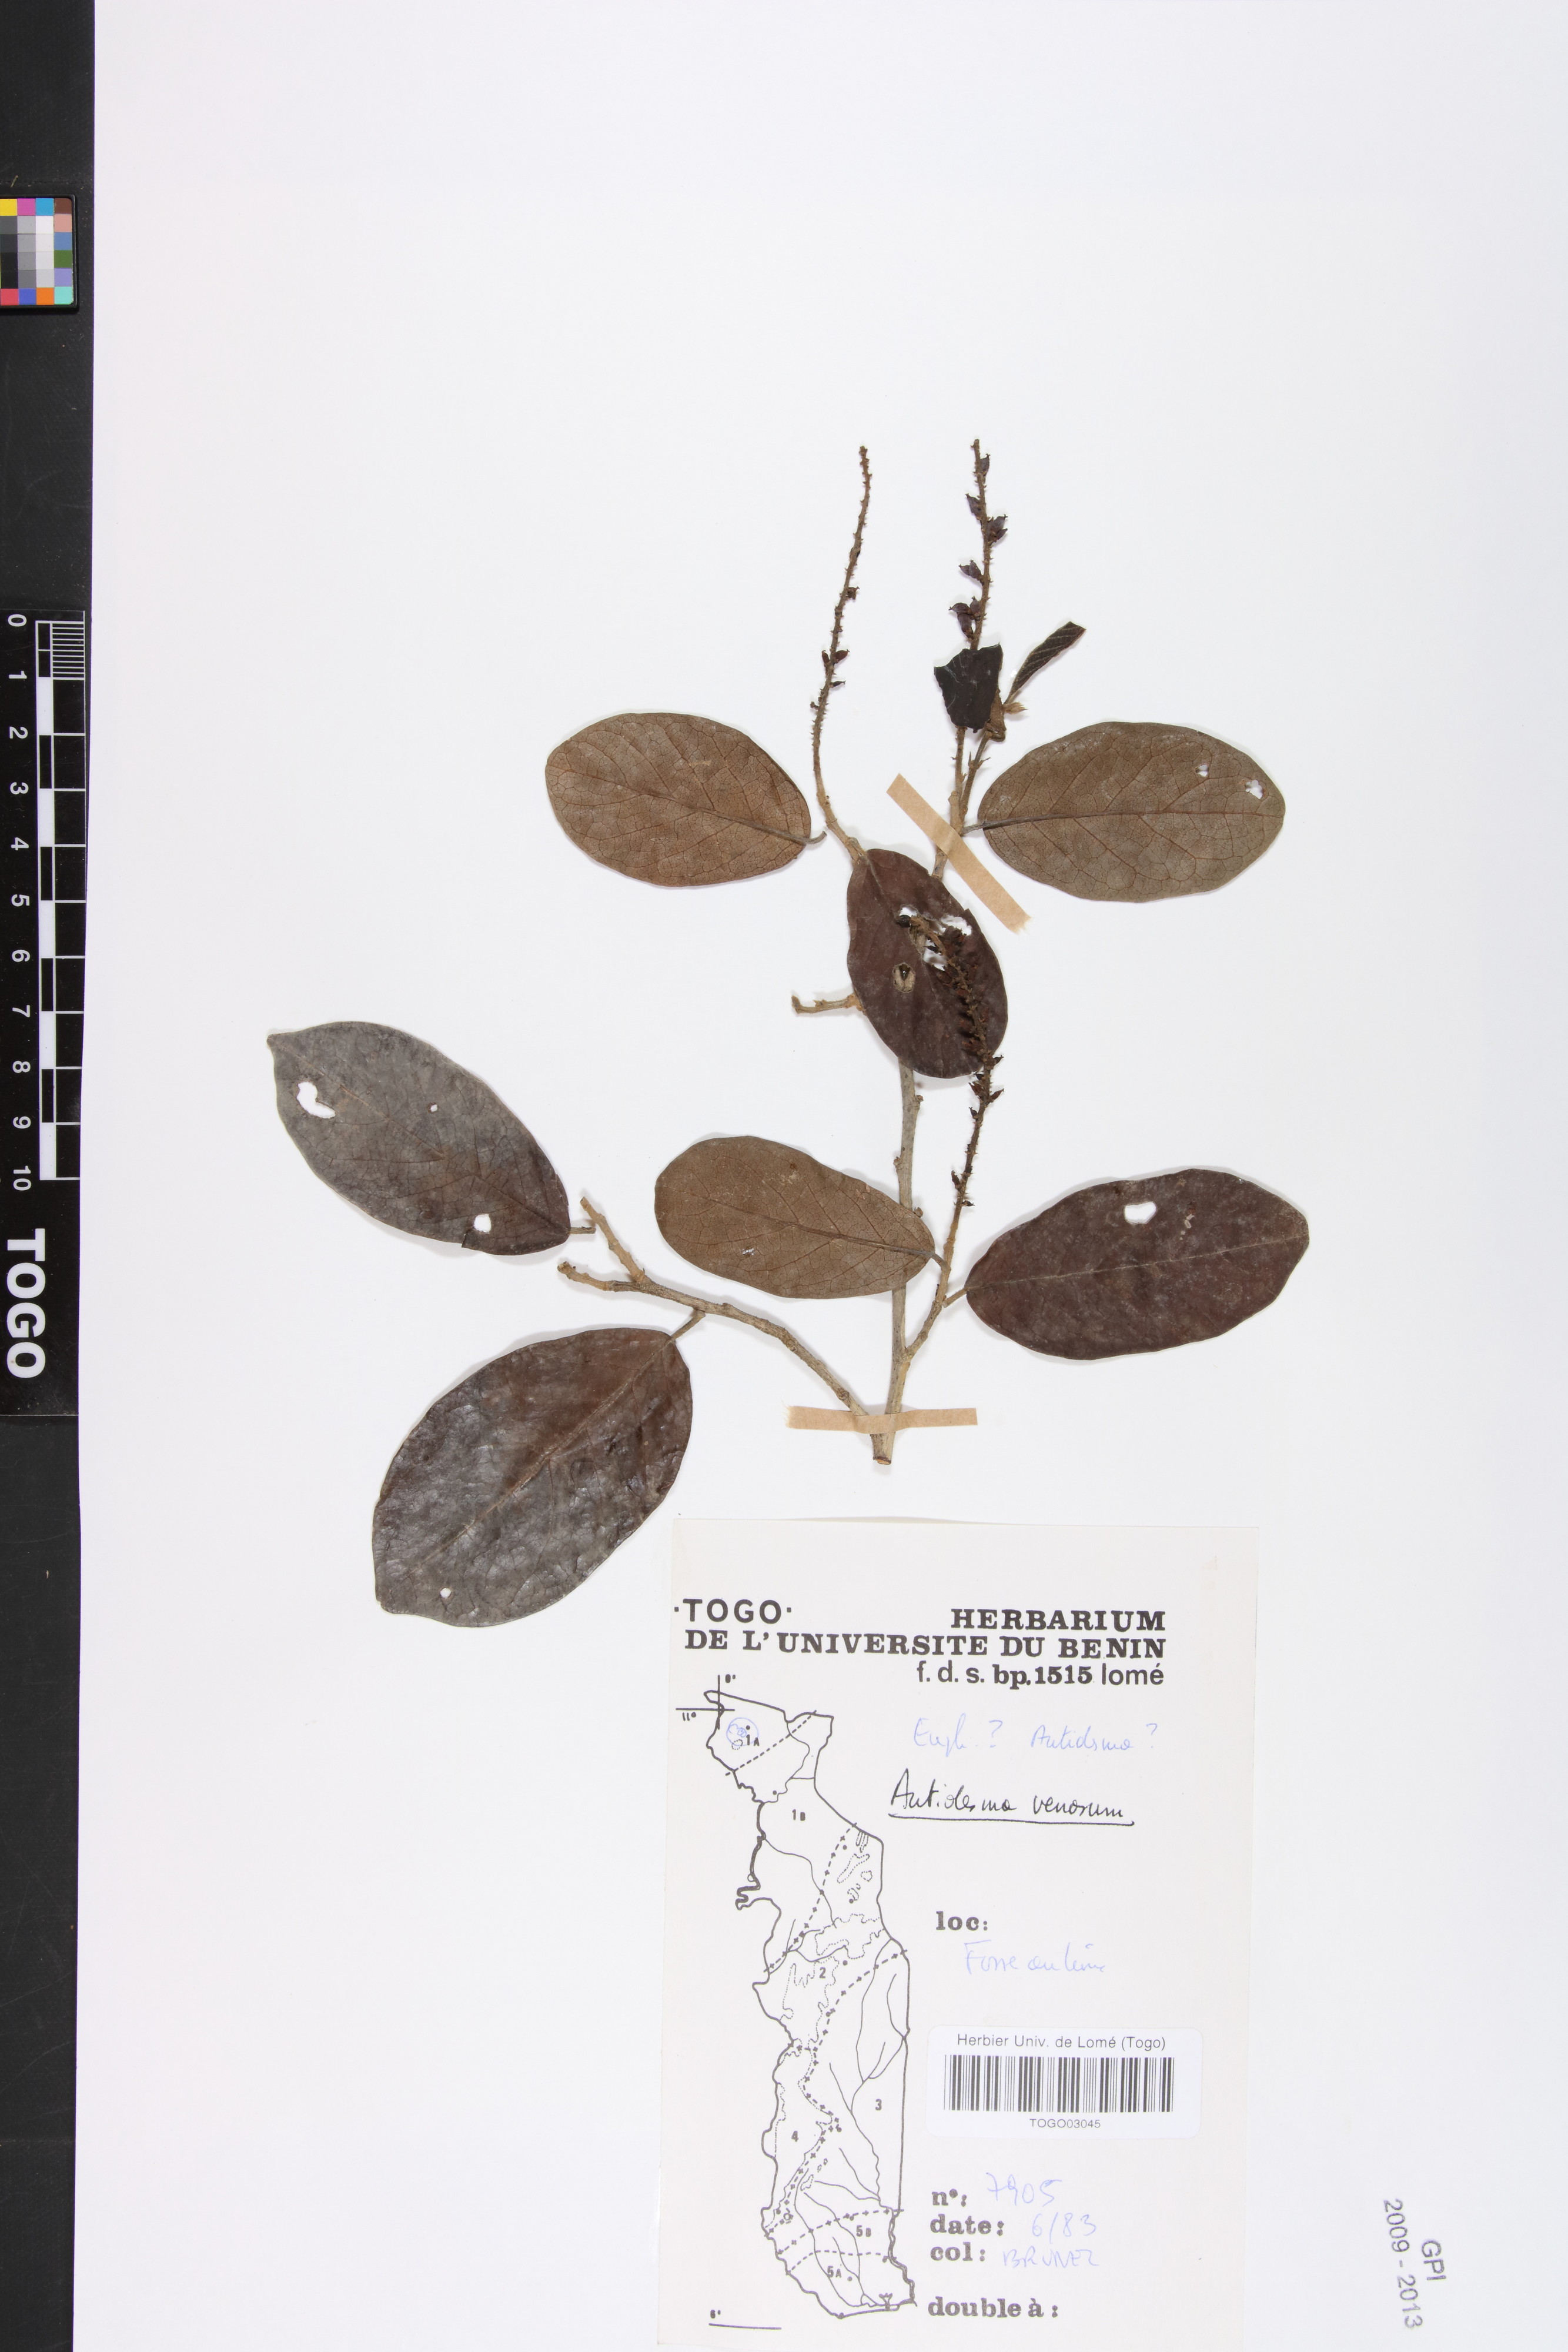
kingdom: Plantae
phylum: Tracheophyta
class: Magnoliopsida
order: Malpighiales
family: Phyllanthaceae
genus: Antidesma
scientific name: Antidesma venosum
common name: Tassel-berry
